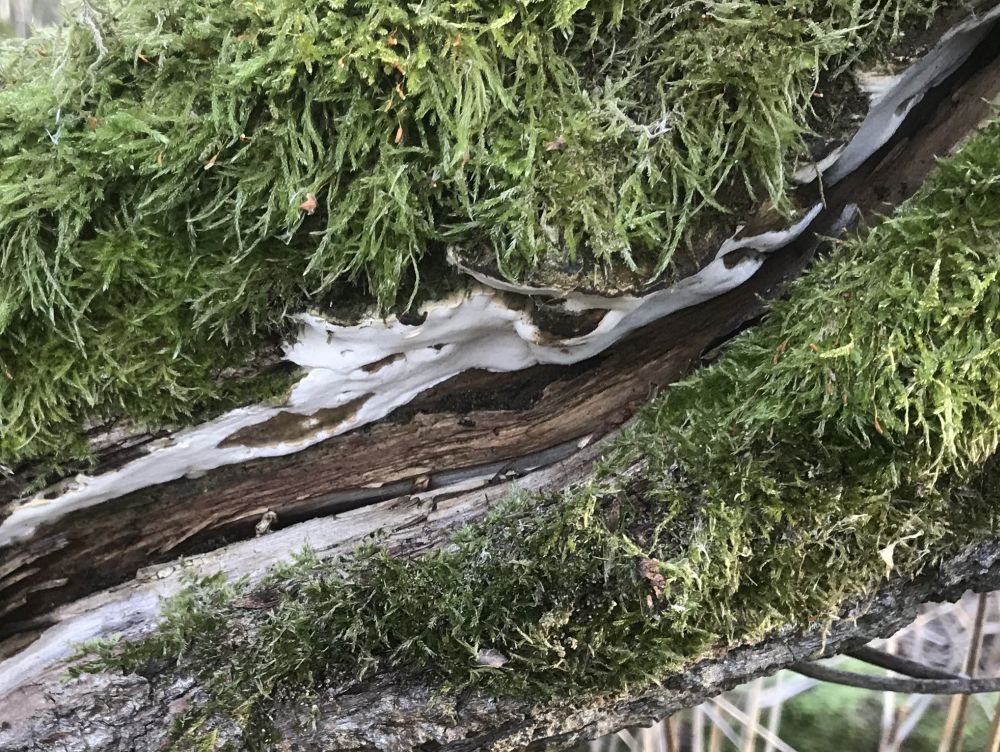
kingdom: Fungi
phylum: Basidiomycota
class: Agaricomycetes
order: Hymenochaetales
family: Oxyporaceae
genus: Oxyporus
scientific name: Oxyporus populinus
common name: sammenvokset trylleporesvamp
